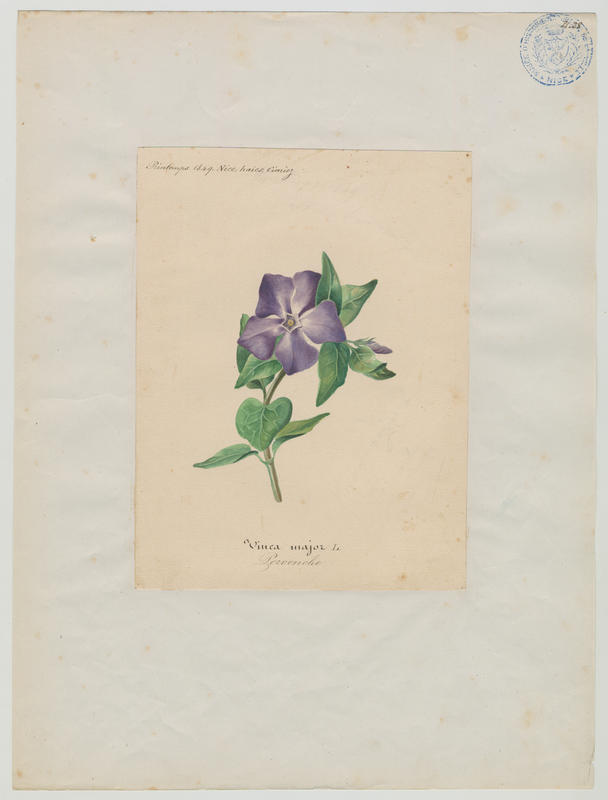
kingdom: Plantae
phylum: Tracheophyta
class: Magnoliopsida
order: Gentianales
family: Apocynaceae
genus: Vinca
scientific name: Vinca major
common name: Greater periwinkle
